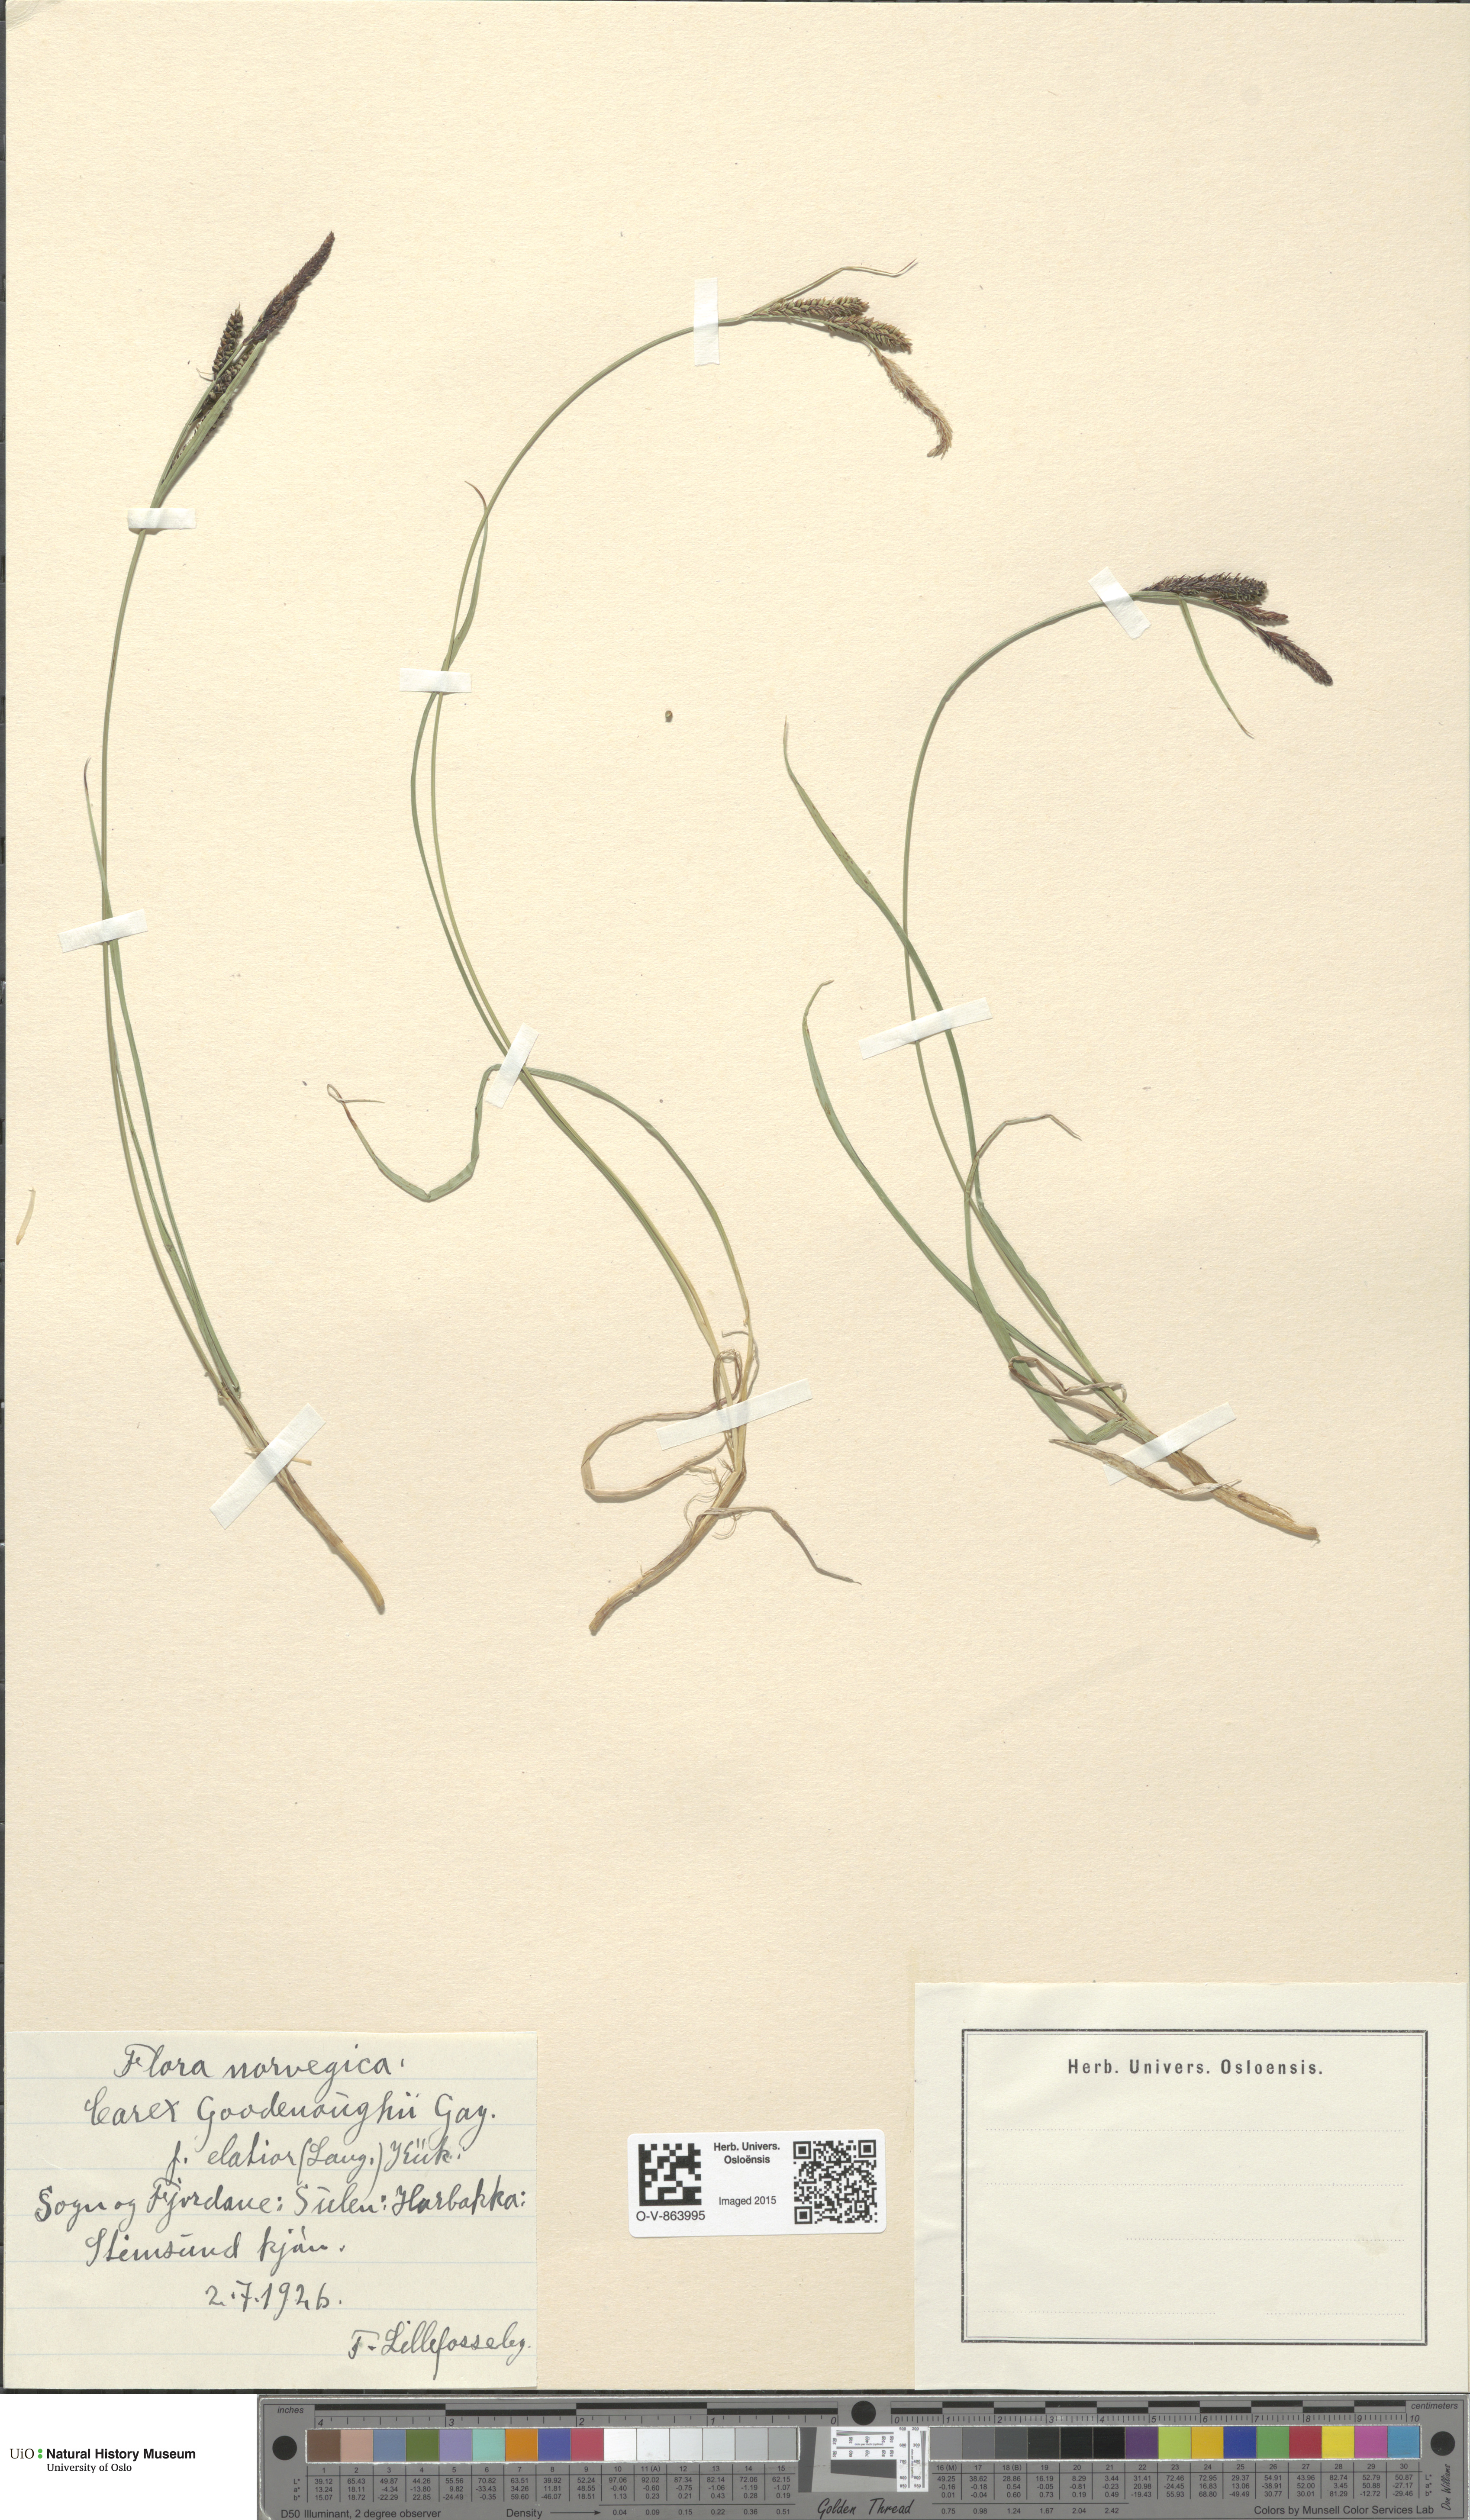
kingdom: Plantae
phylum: Tracheophyta
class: Liliopsida
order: Poales
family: Cyperaceae
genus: Carex
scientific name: Carex nigra
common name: Common sedge
